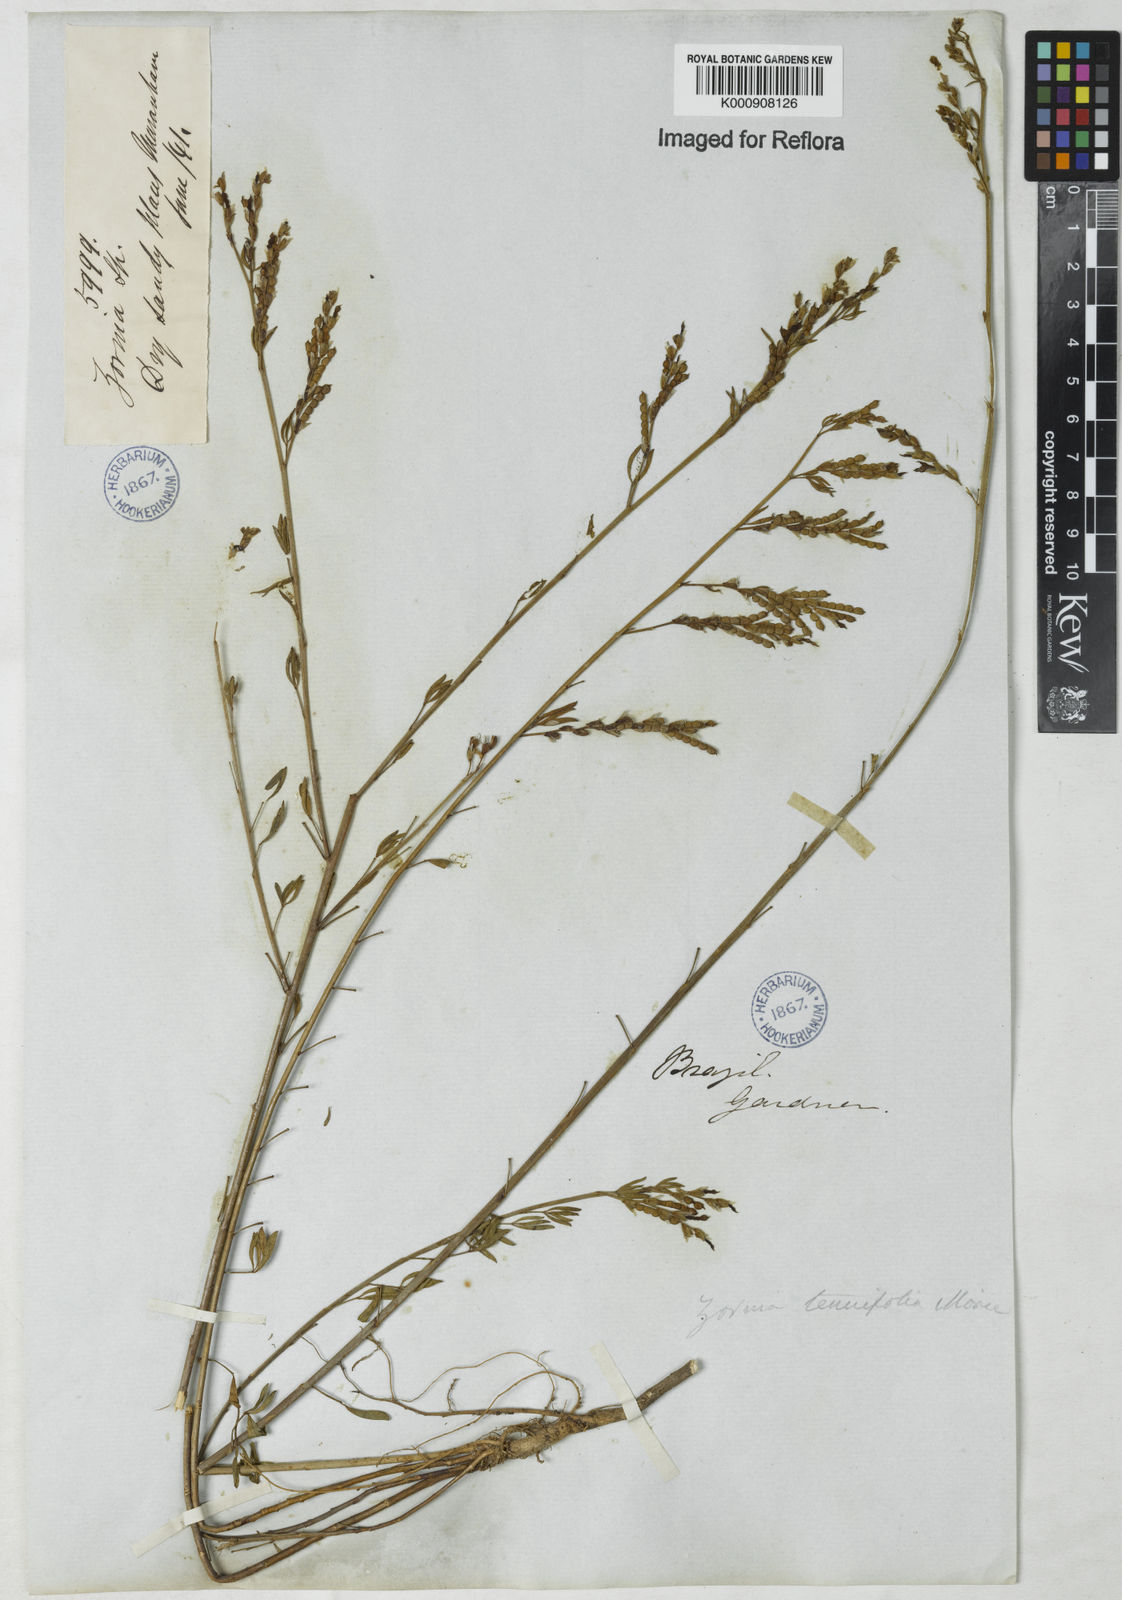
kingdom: Plantae
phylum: Tracheophyta
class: Magnoliopsida
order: Fabales
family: Fabaceae
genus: Zornia
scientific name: Zornia tenuifolia
